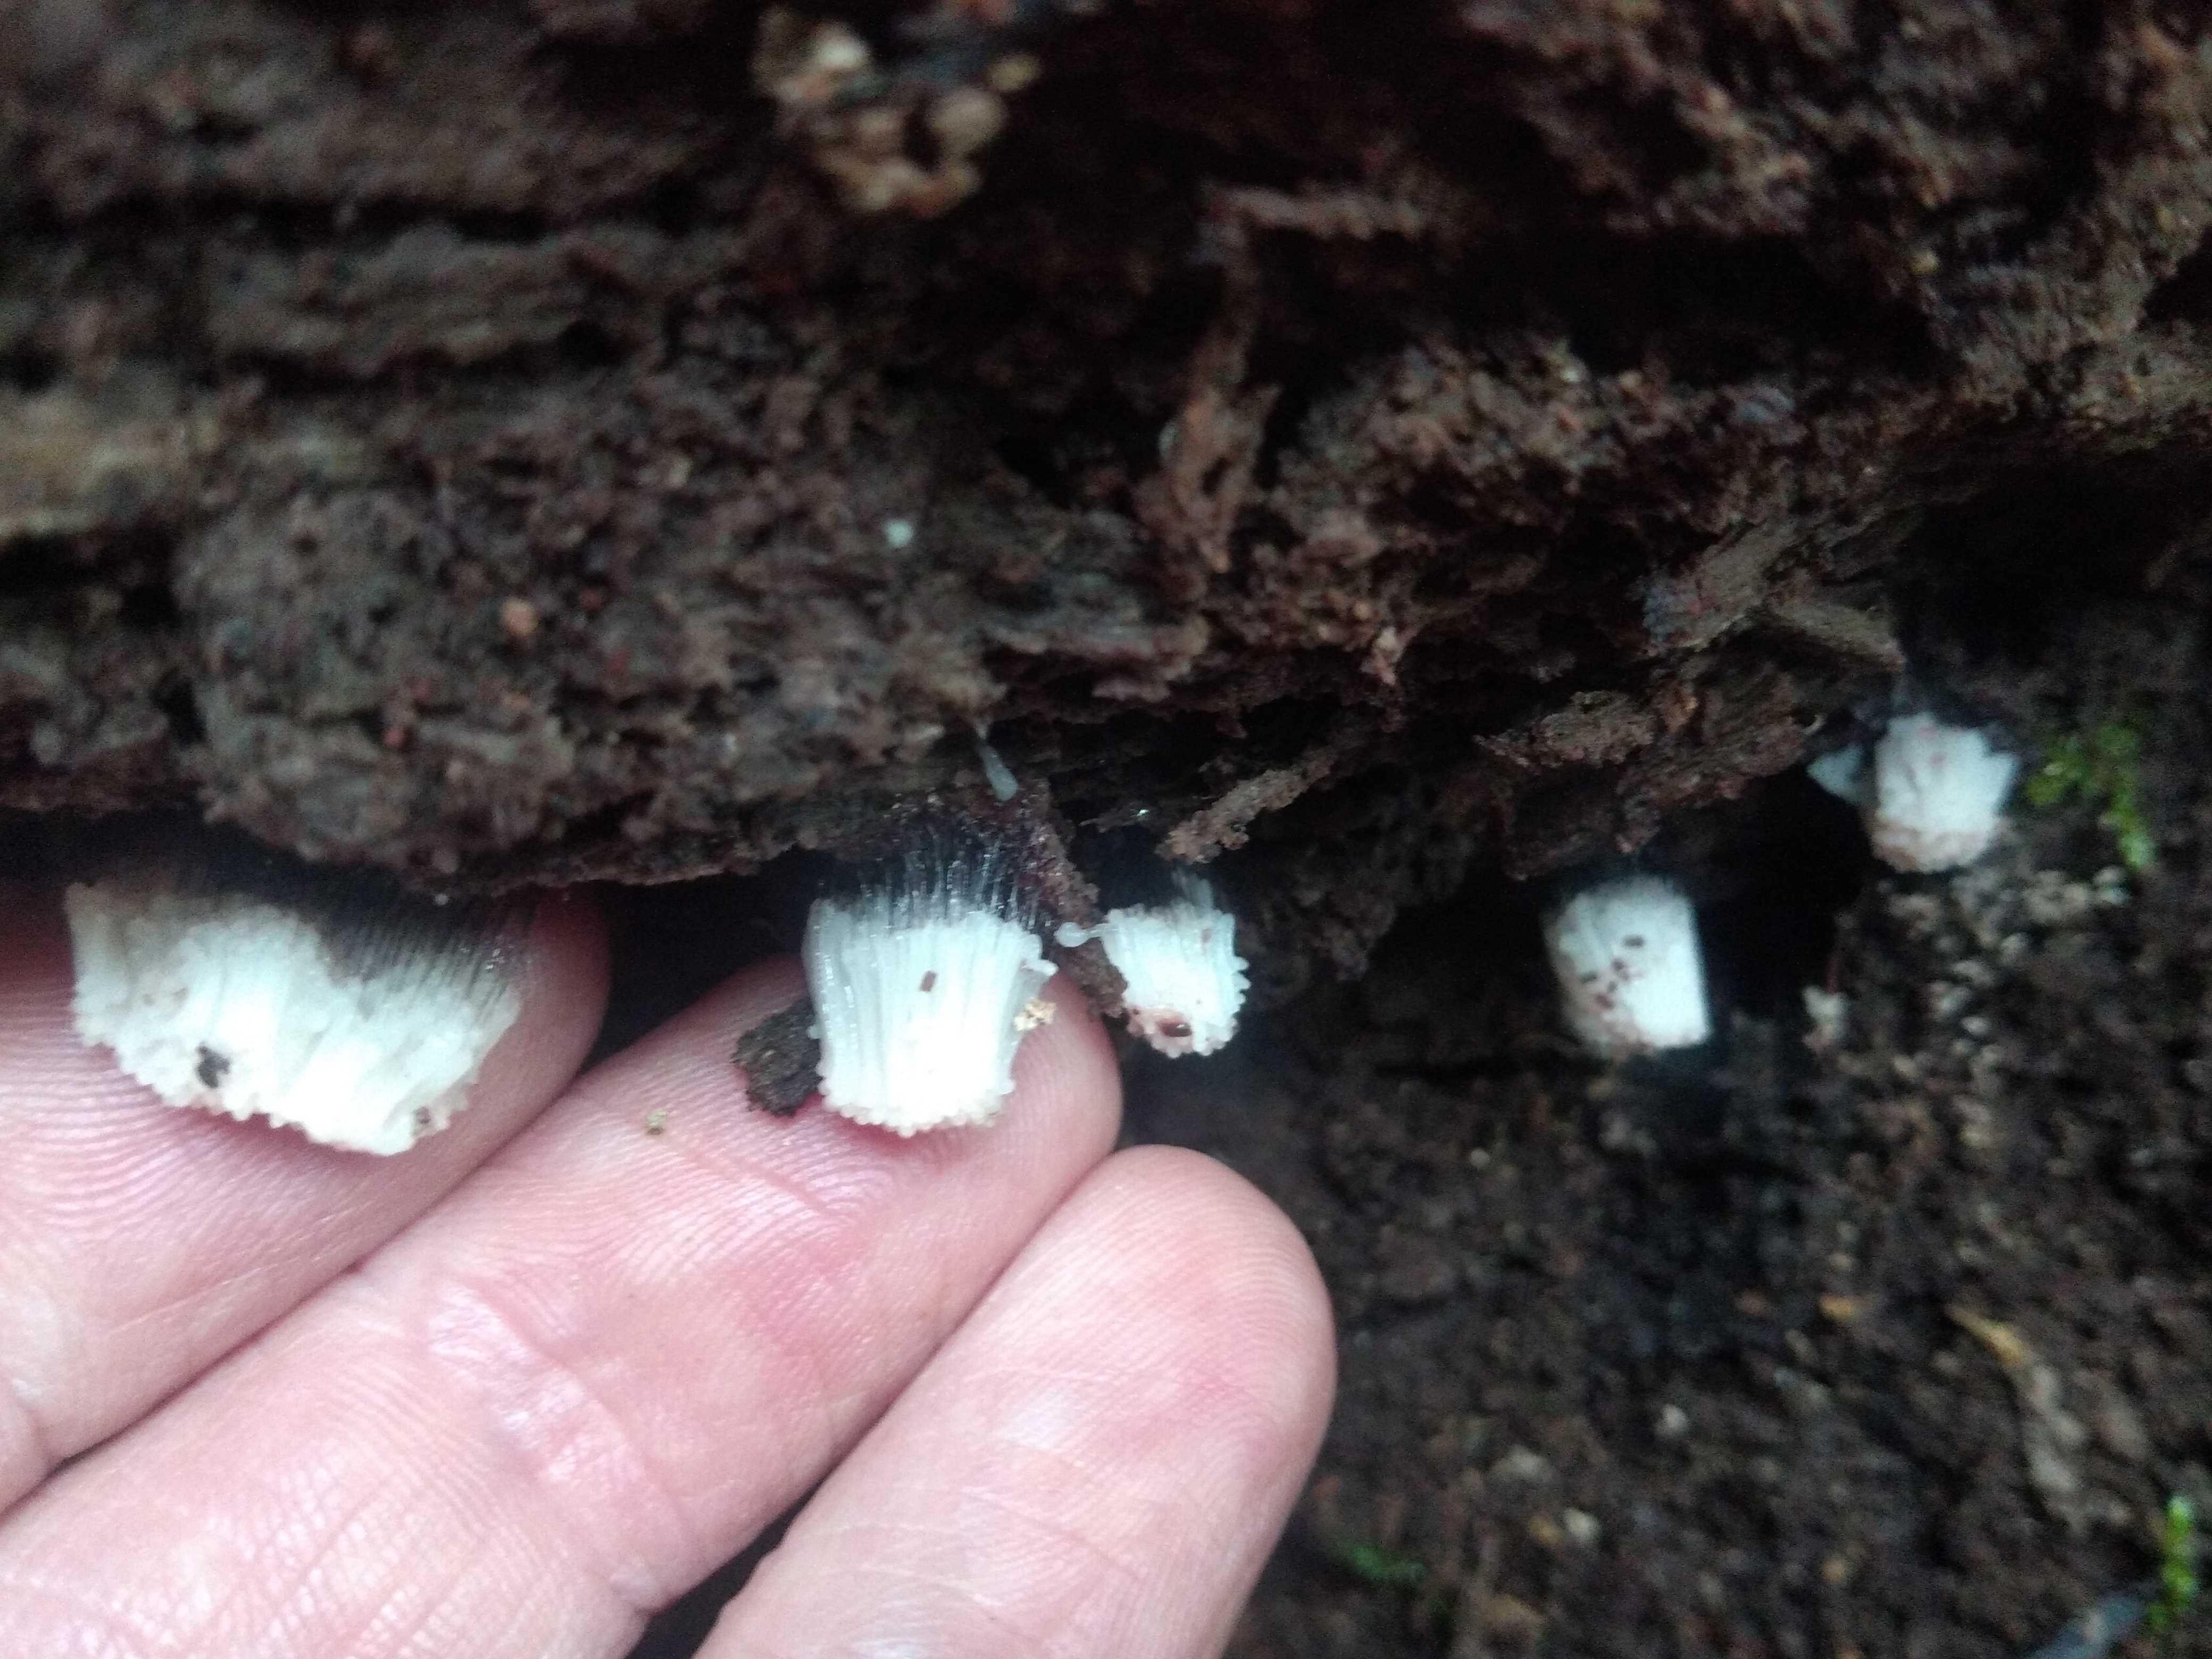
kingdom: Protozoa
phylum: Mycetozoa
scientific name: Mycetozoa
